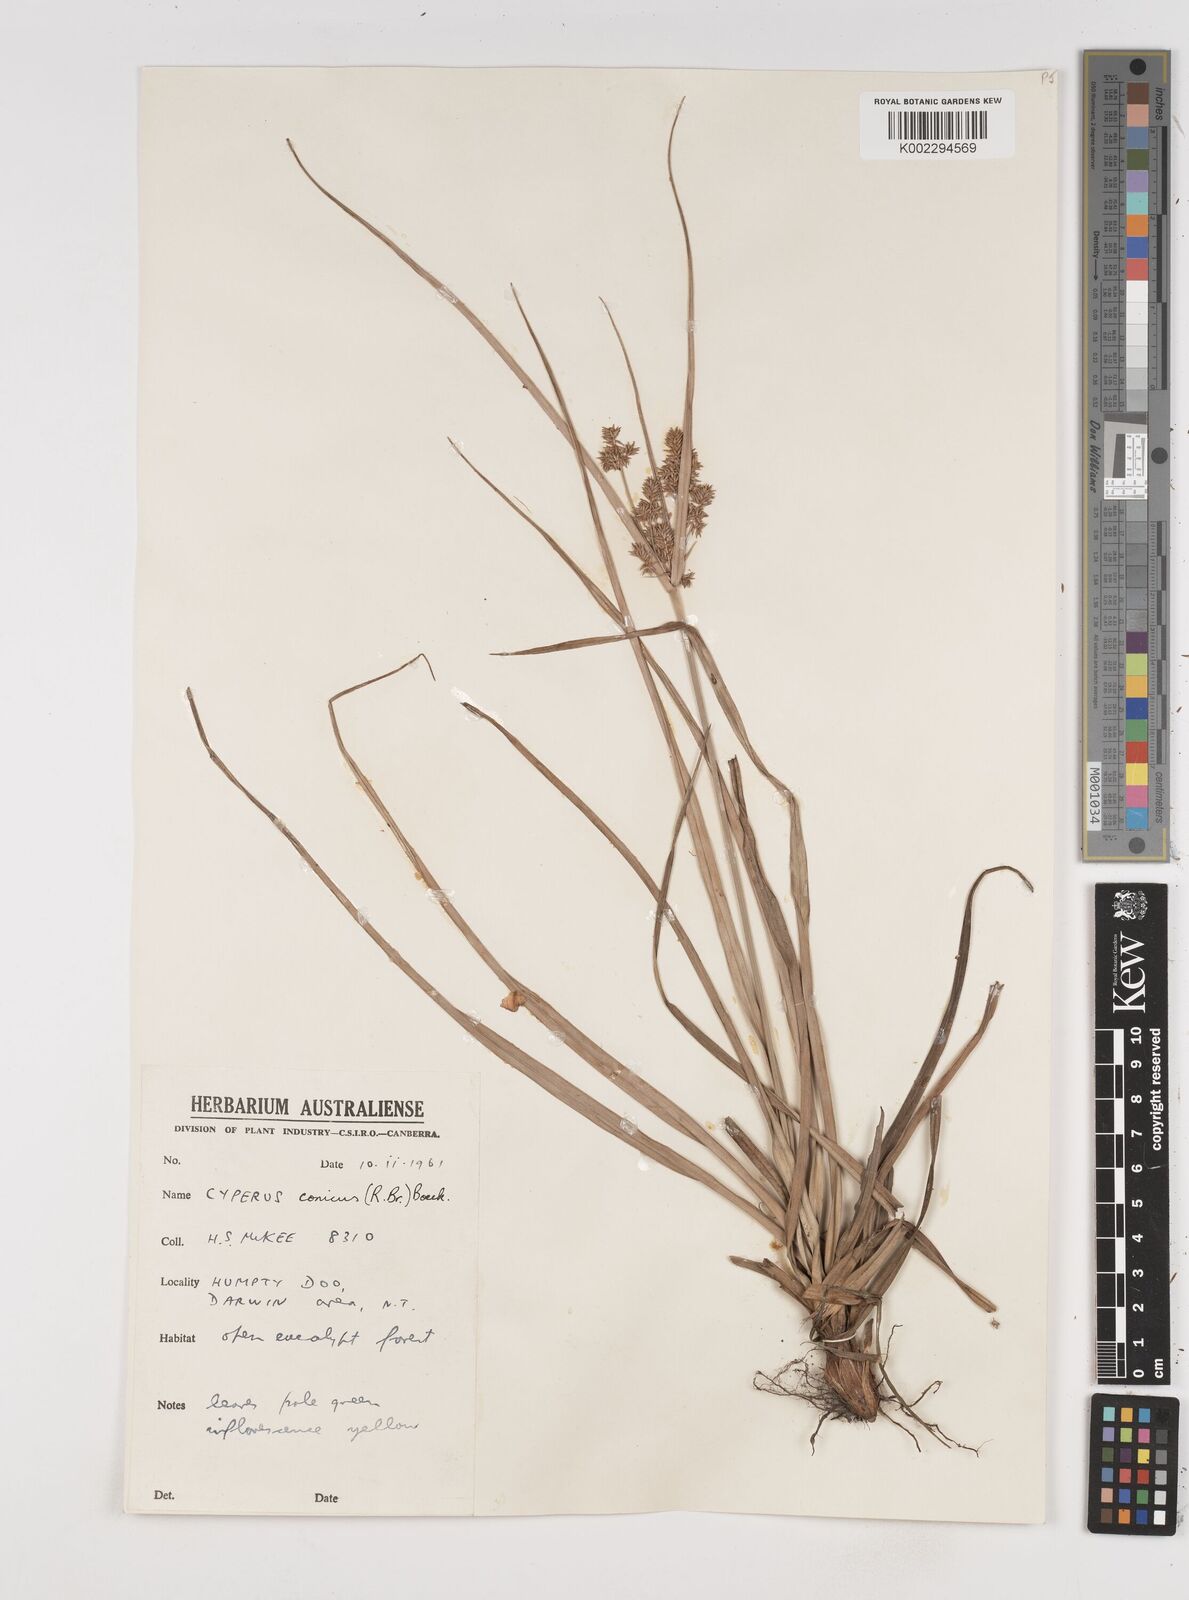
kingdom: Plantae
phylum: Tracheophyta
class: Liliopsida
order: Poales
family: Cyperaceae
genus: Cyperus
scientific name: Cyperus conicus
